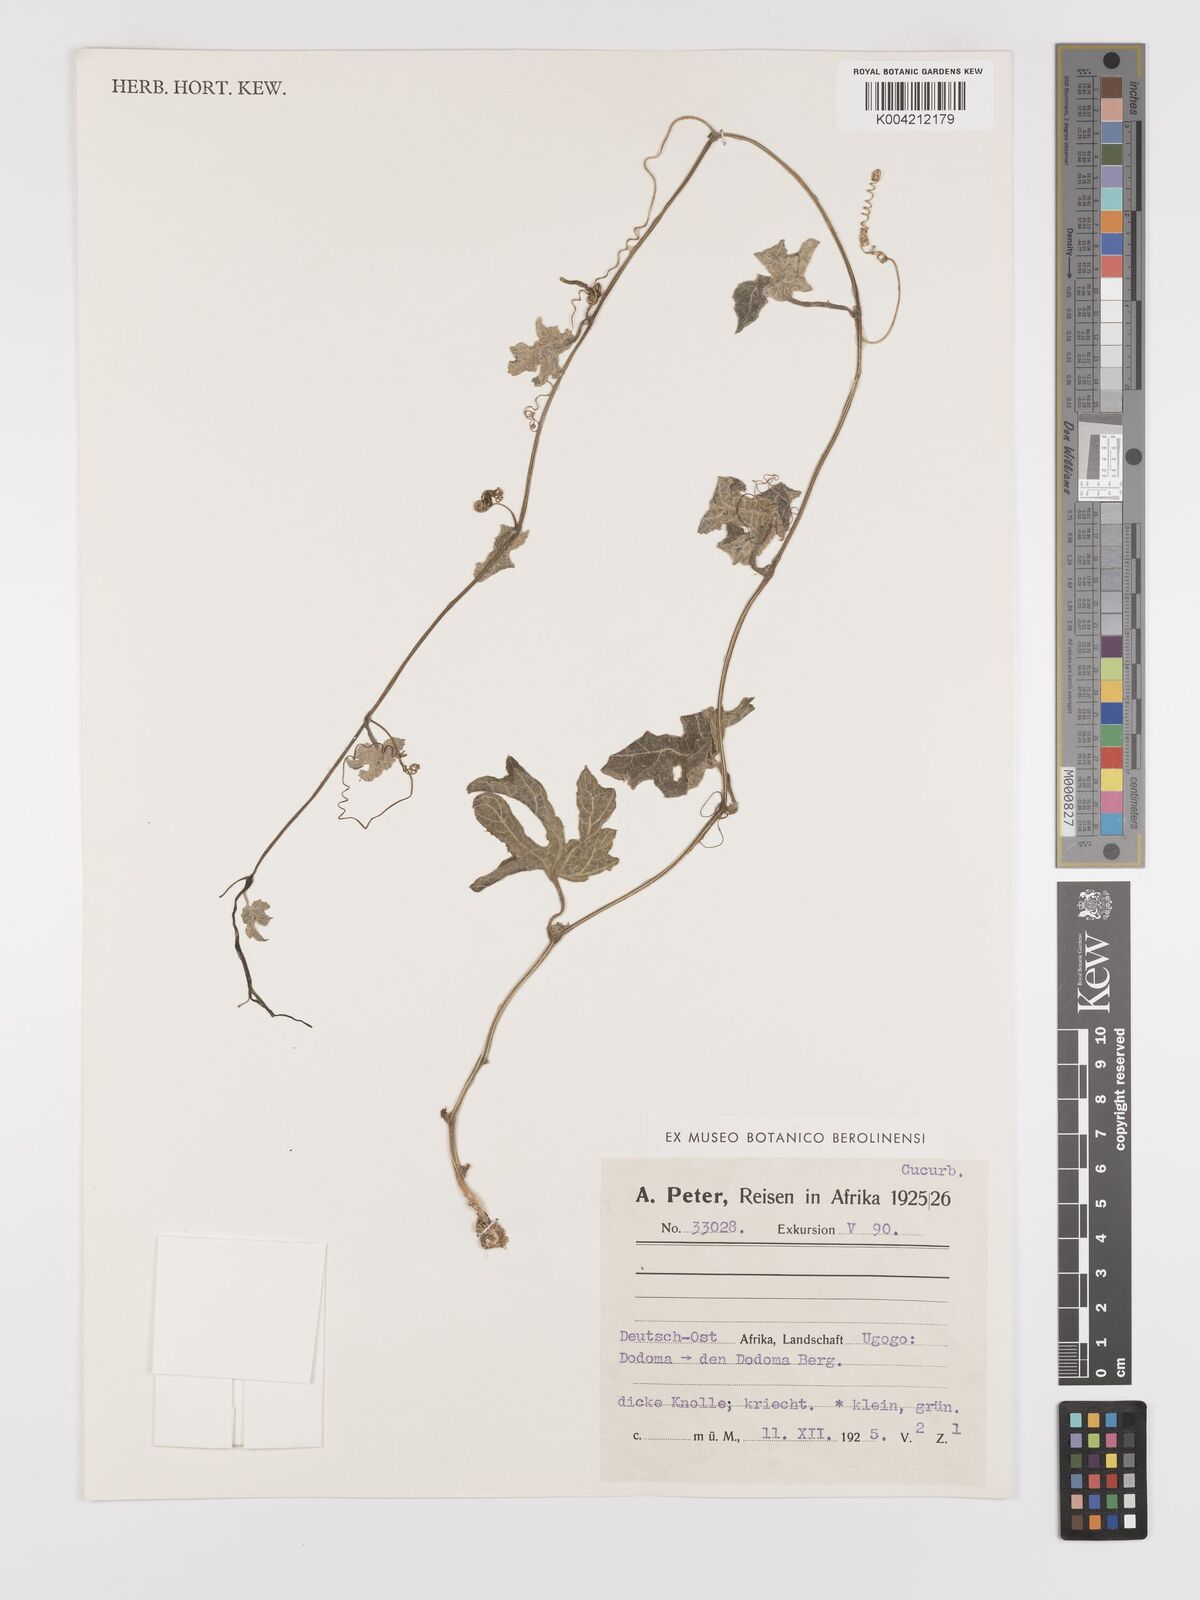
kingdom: Plantae
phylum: Tracheophyta
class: Magnoliopsida
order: Cucurbitales
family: Cucurbitaceae
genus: Kedrostis
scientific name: Kedrostis leloja
